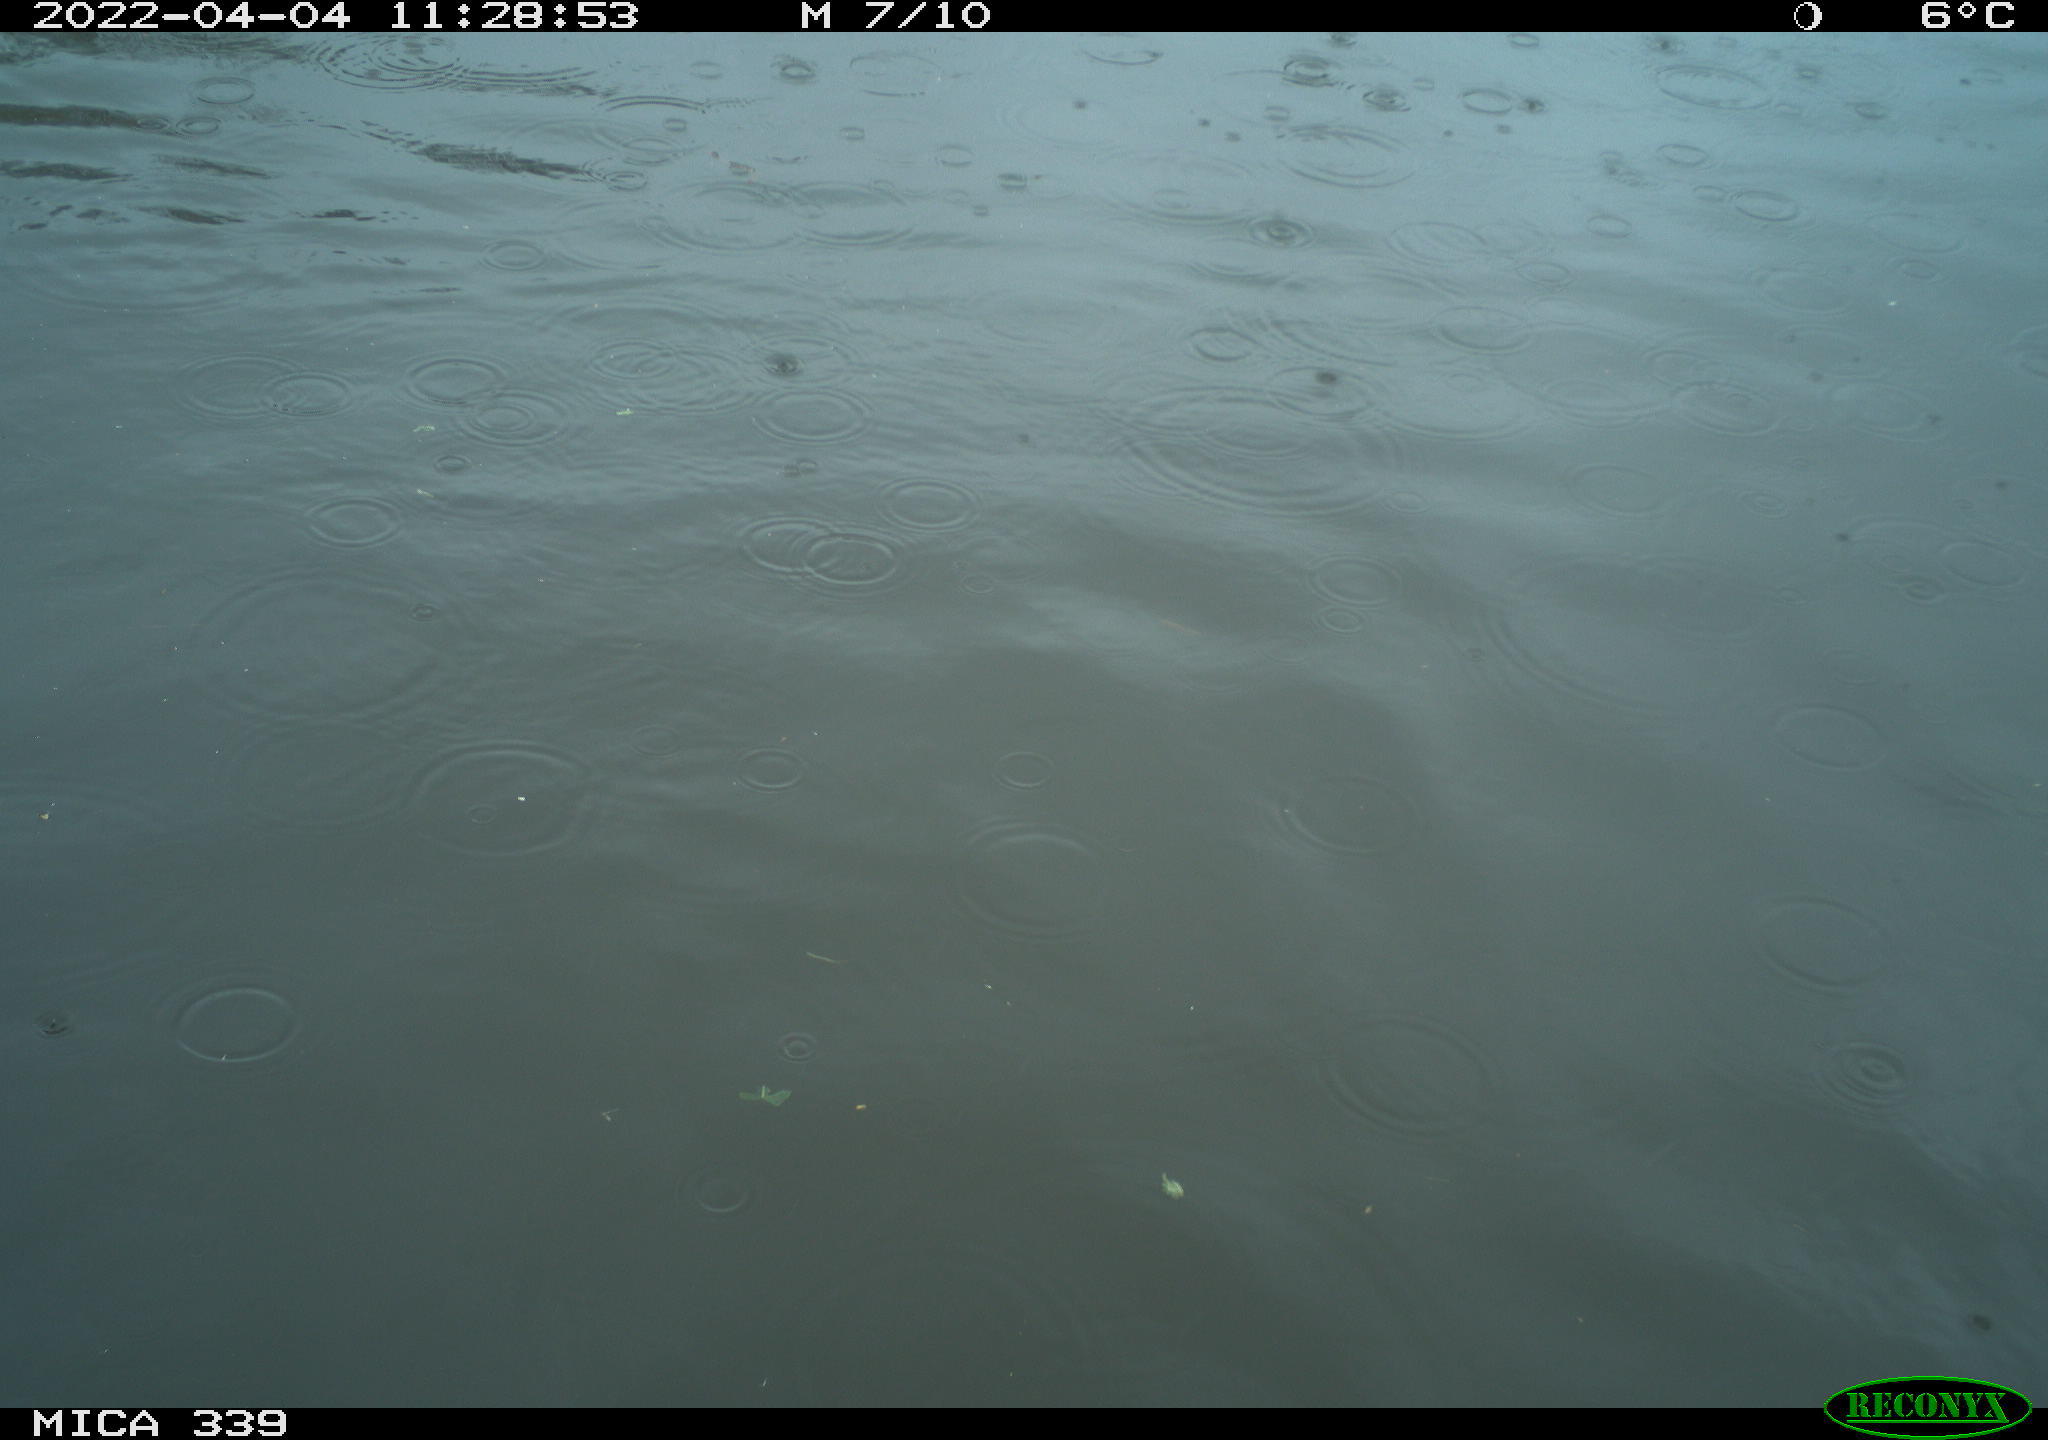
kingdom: Animalia
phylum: Chordata
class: Aves
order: Anseriformes
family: Anatidae
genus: Anas
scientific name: Anas platyrhynchos
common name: Mallard
